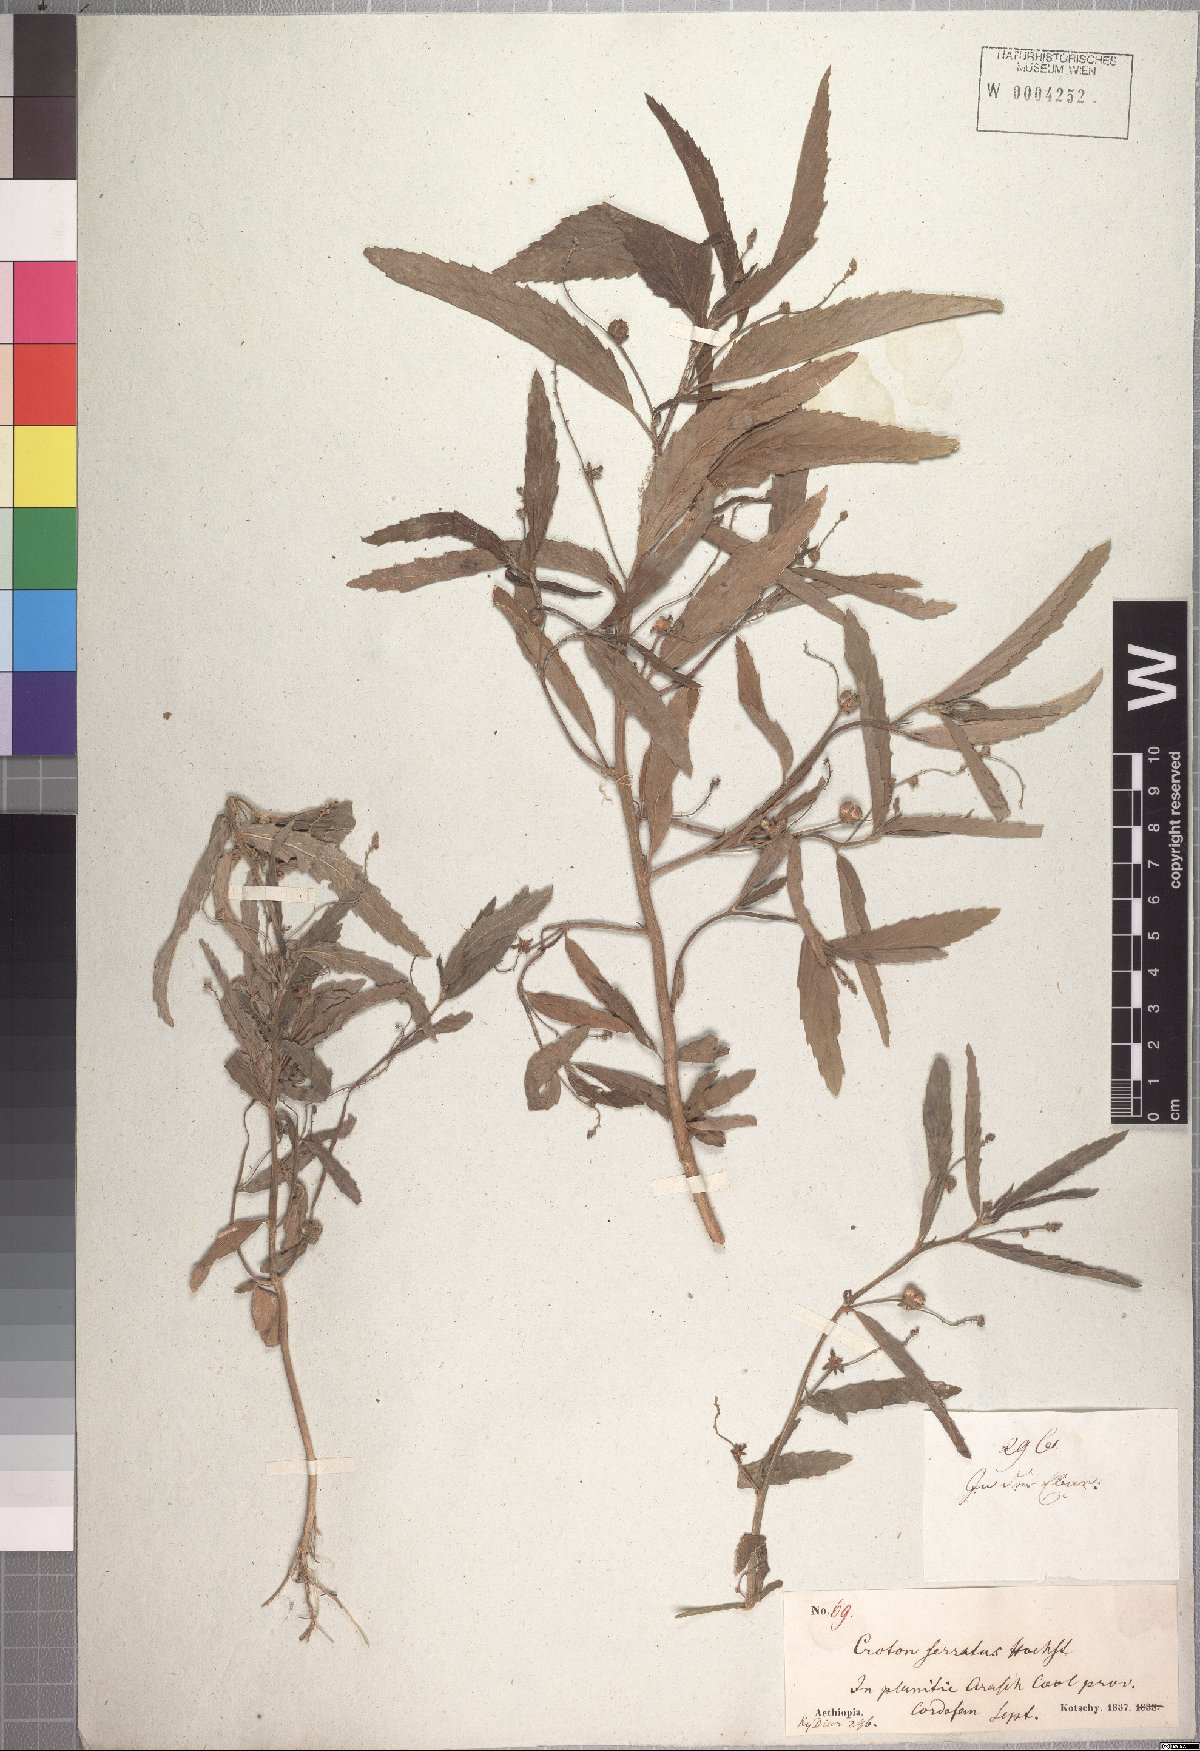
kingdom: Plantae
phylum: Tracheophyta
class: Magnoliopsida
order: Malpighiales
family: Euphorbiaceae
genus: Caperonia
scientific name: Caperonia serrata
